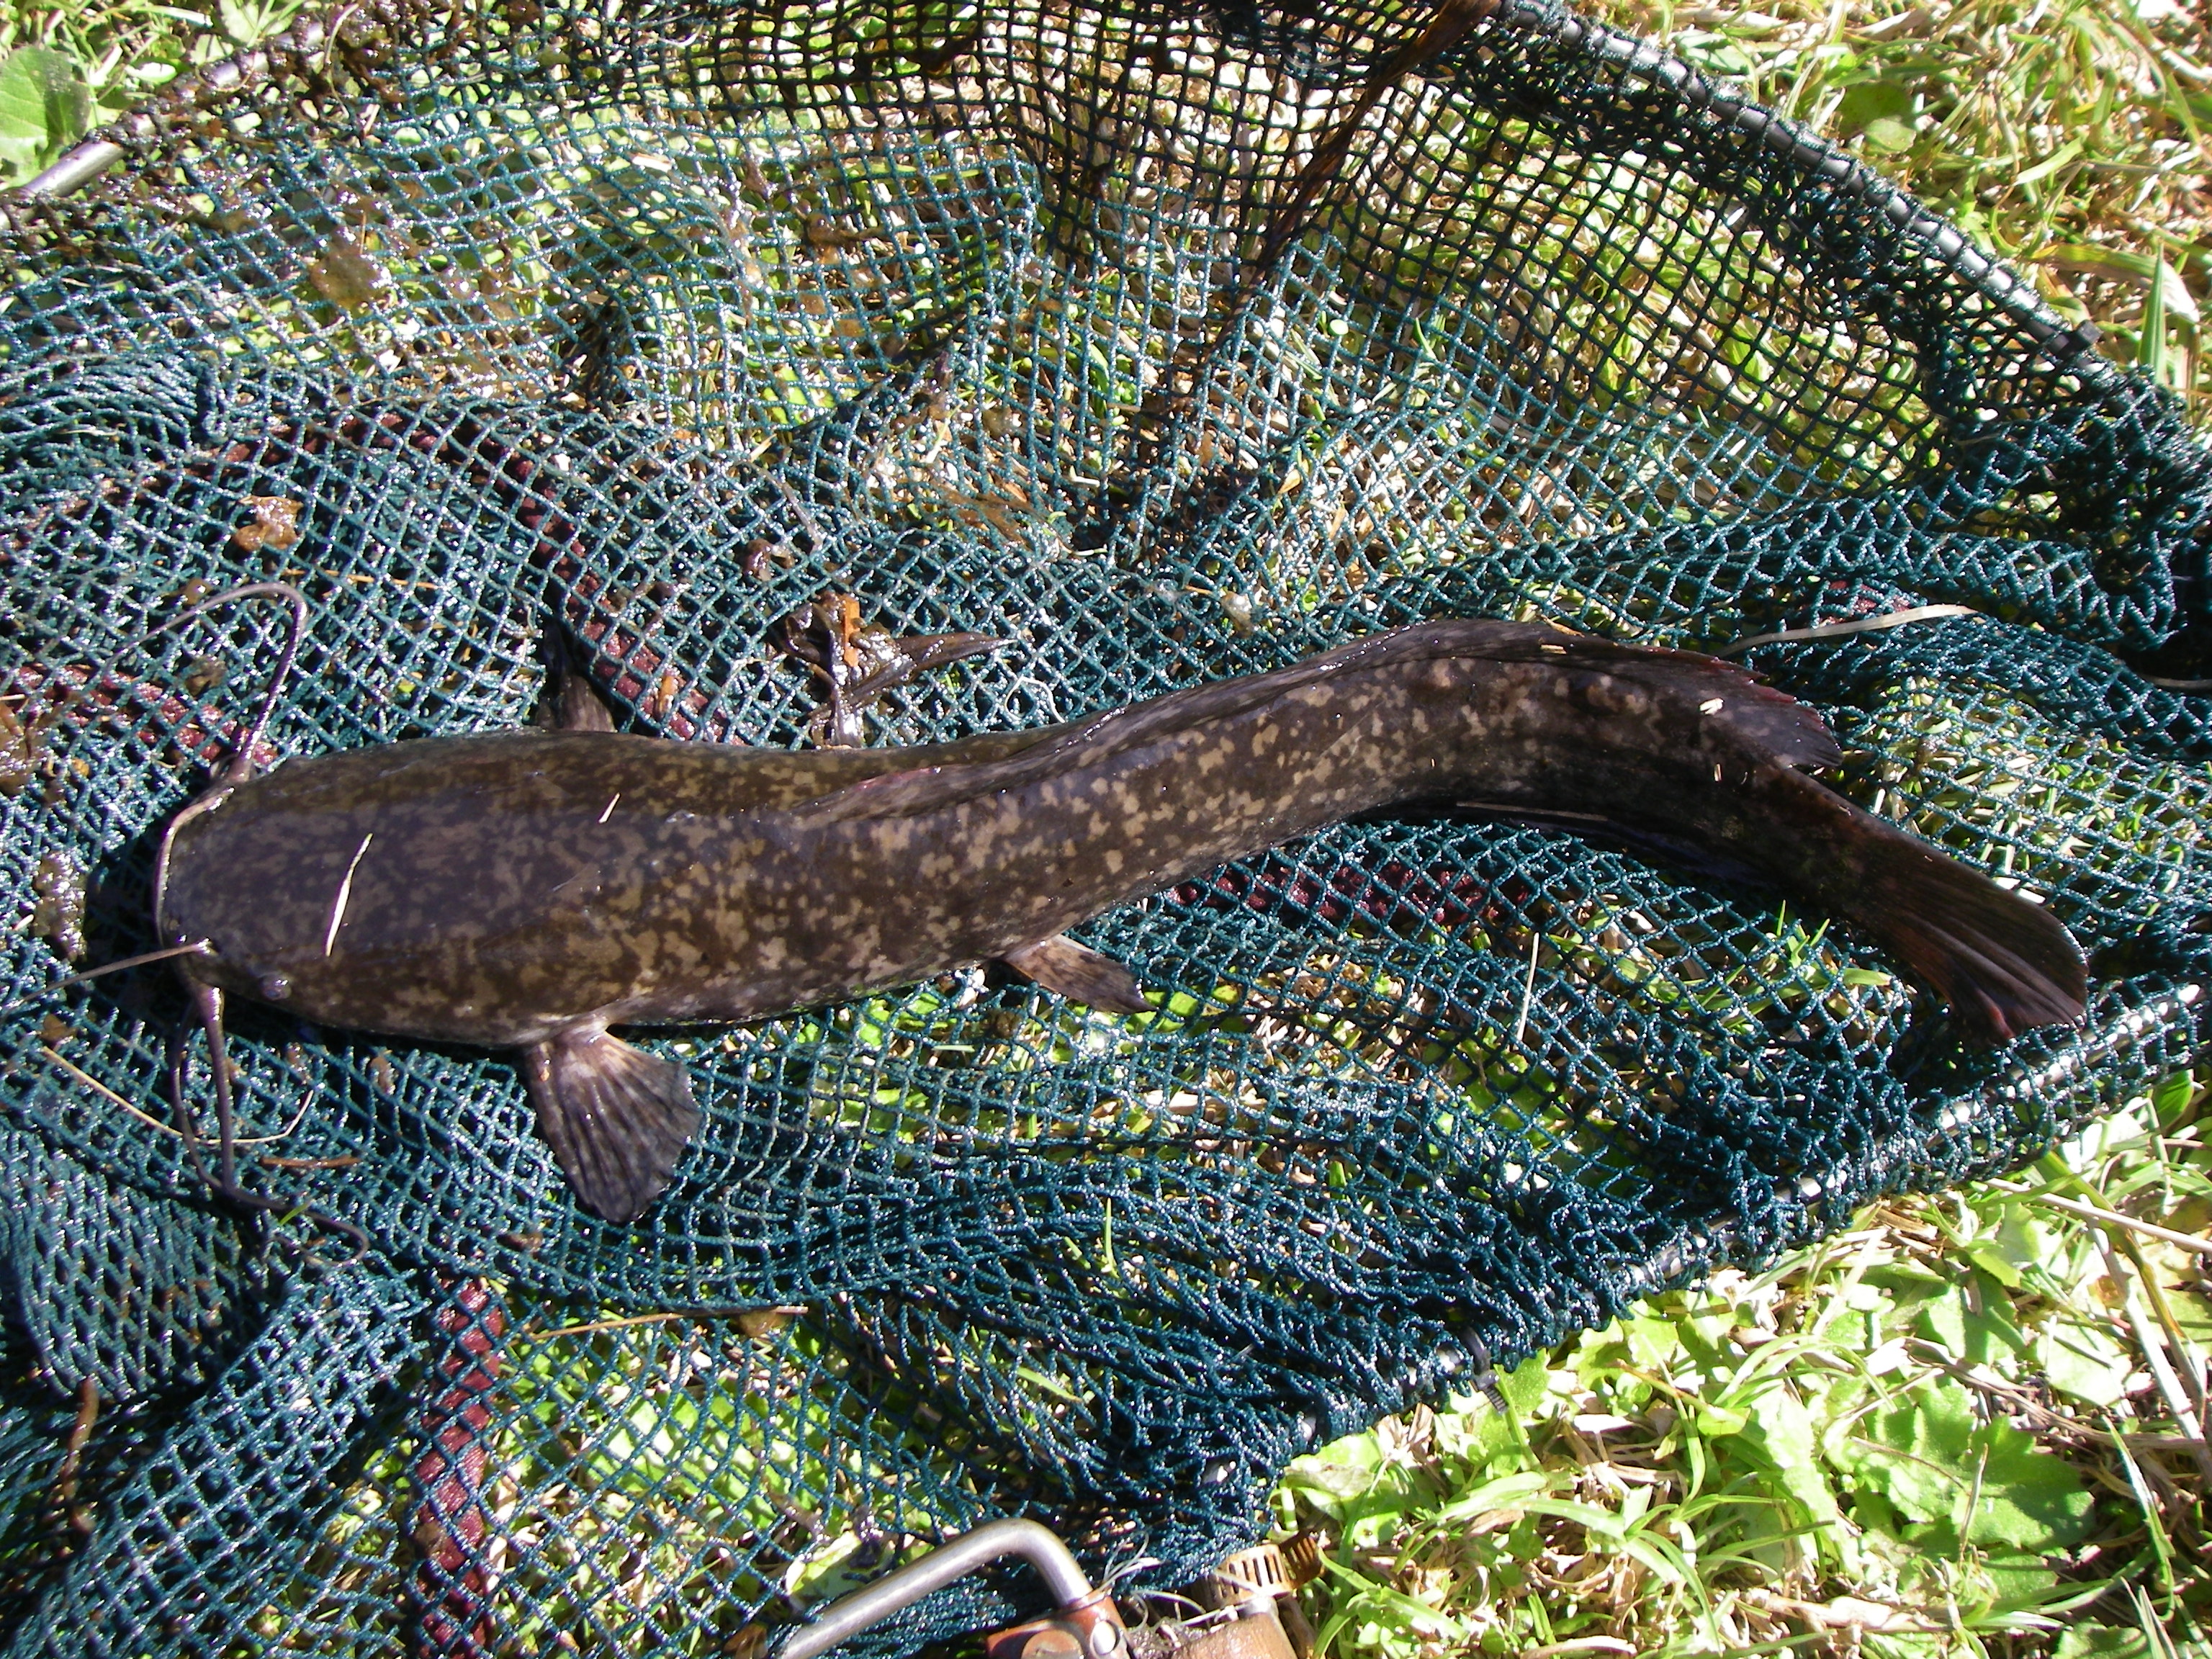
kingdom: Animalia
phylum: Chordata
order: Siluriformes
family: Clariidae
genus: Clarias
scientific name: Clarias gariepinus
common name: African catfish
